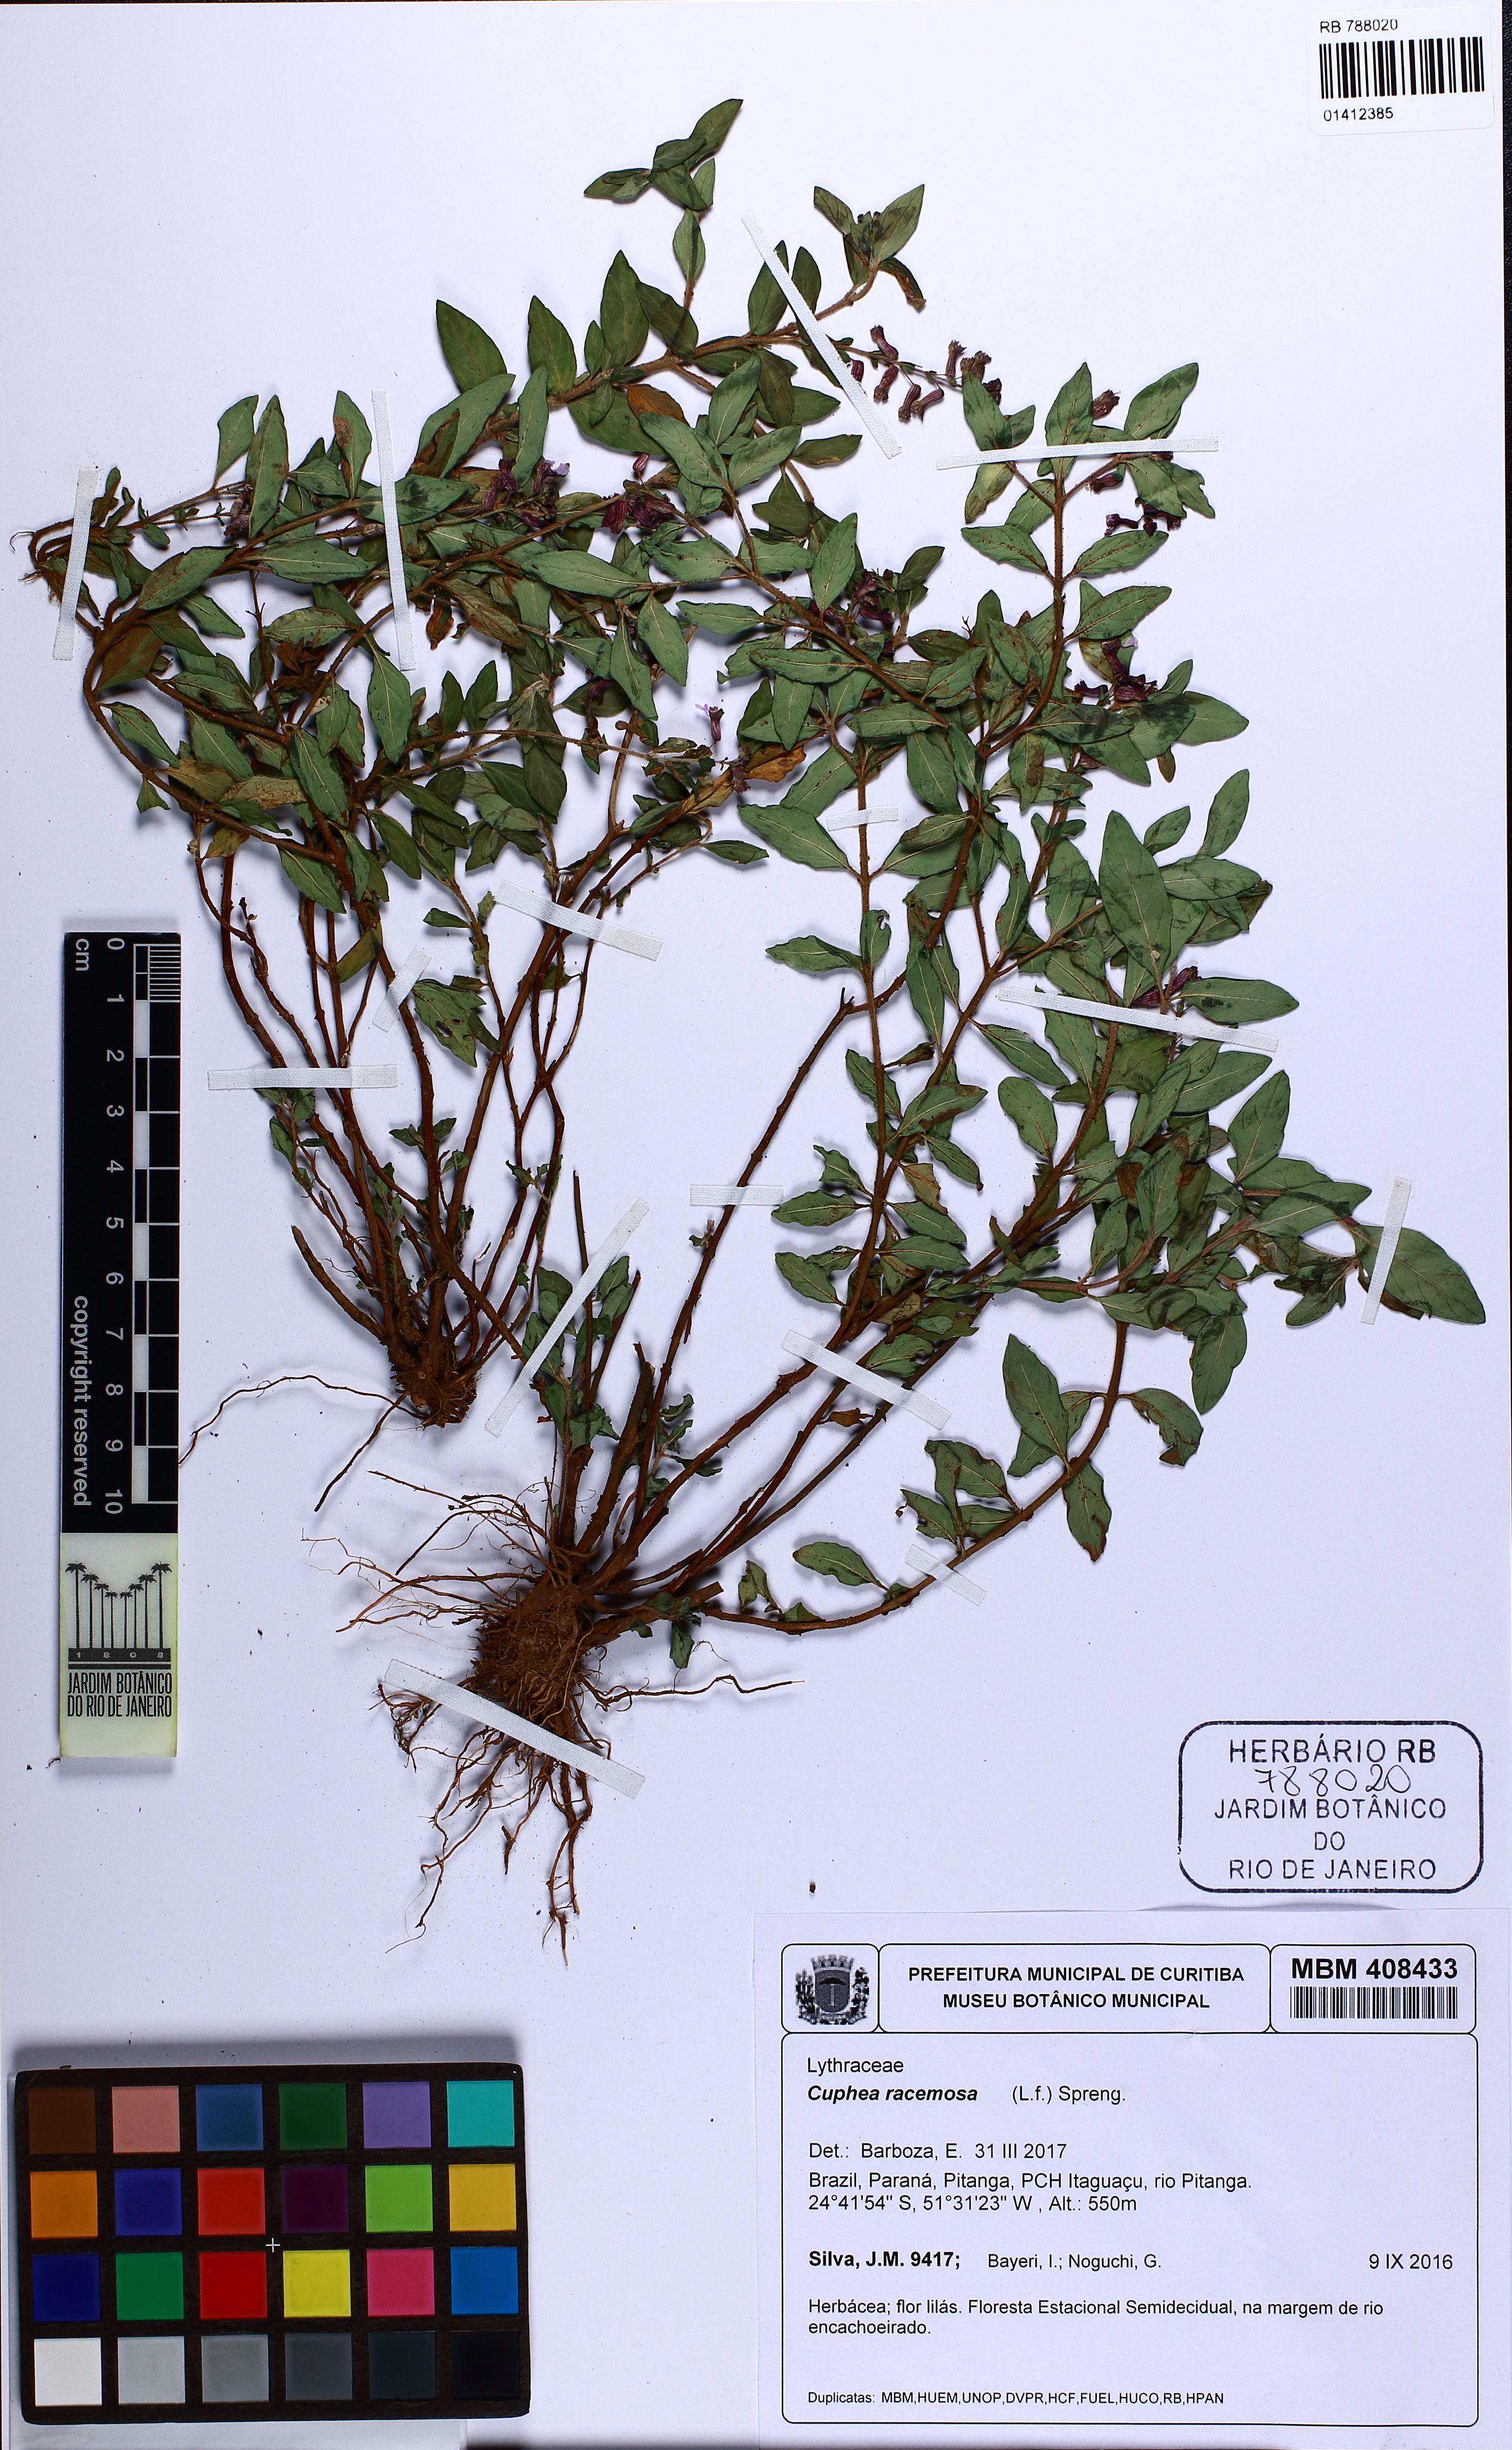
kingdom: Plantae
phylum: Tracheophyta
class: Magnoliopsida
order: Myrtales
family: Lythraceae
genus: Cuphea
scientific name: Cuphea racemosa
